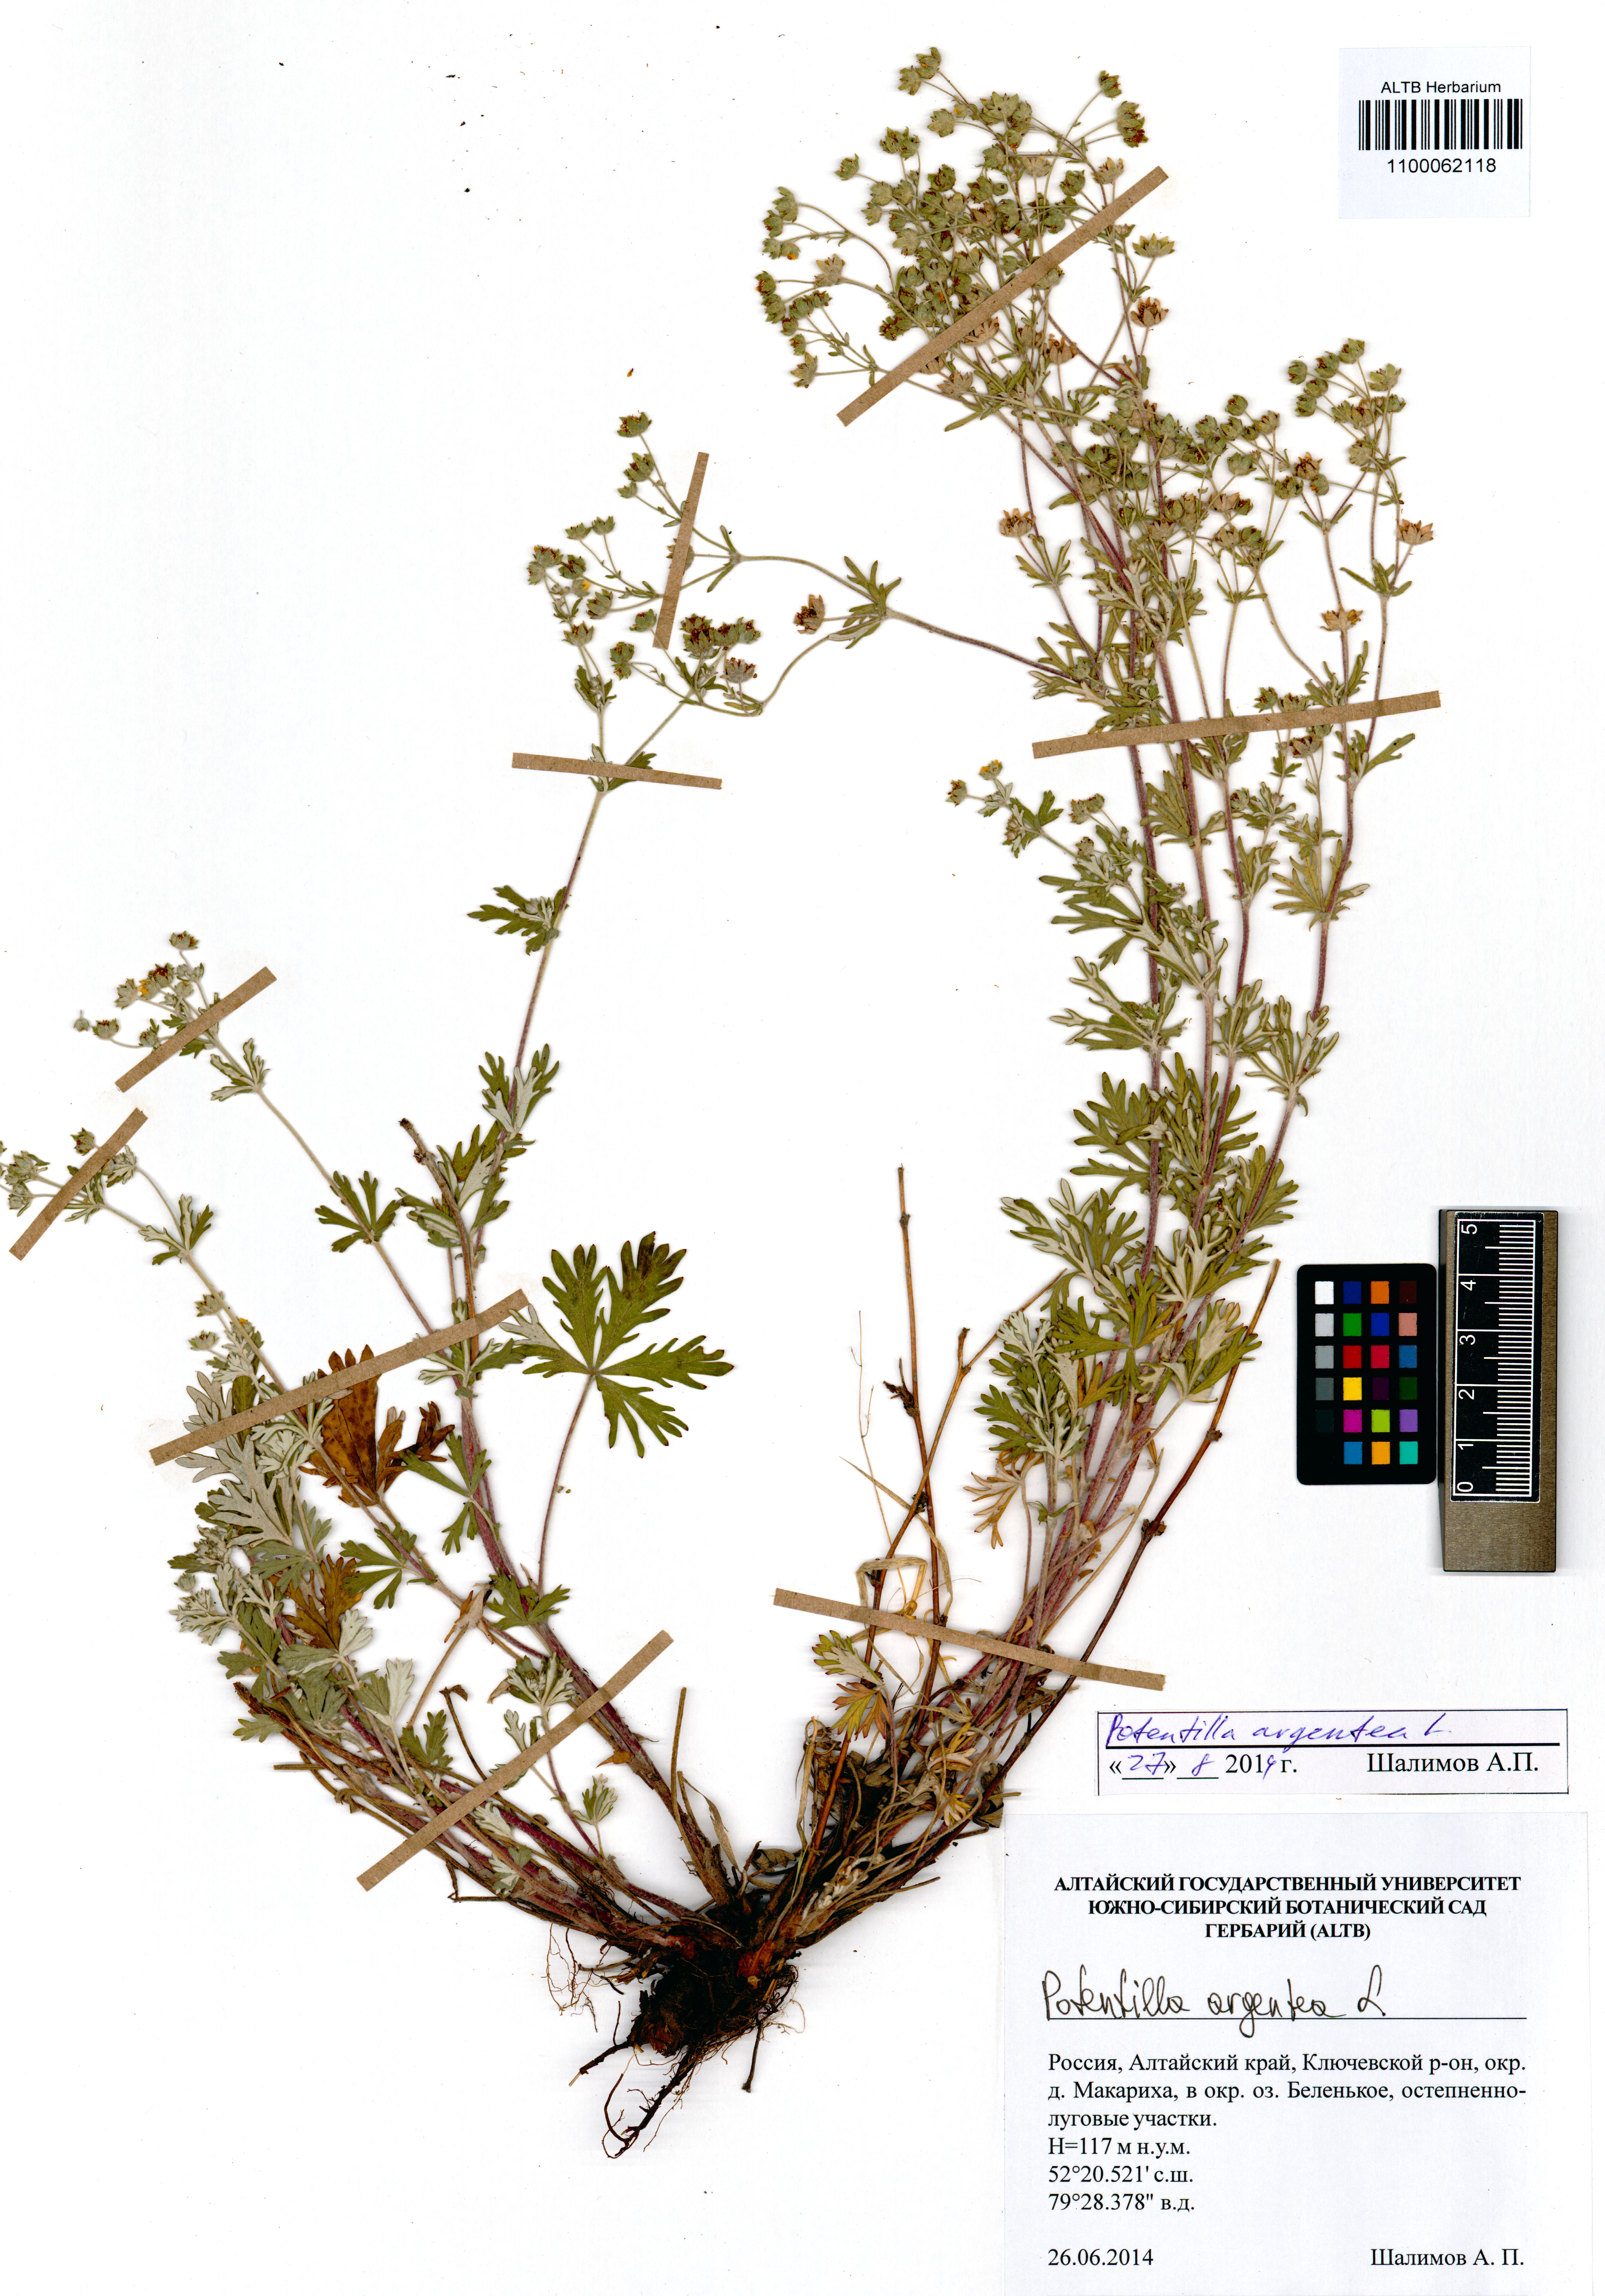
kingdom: Plantae
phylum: Tracheophyta
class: Magnoliopsida
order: Rosales
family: Rosaceae
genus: Potentilla
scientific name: Potentilla argentea
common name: Hoary cinquefoil
